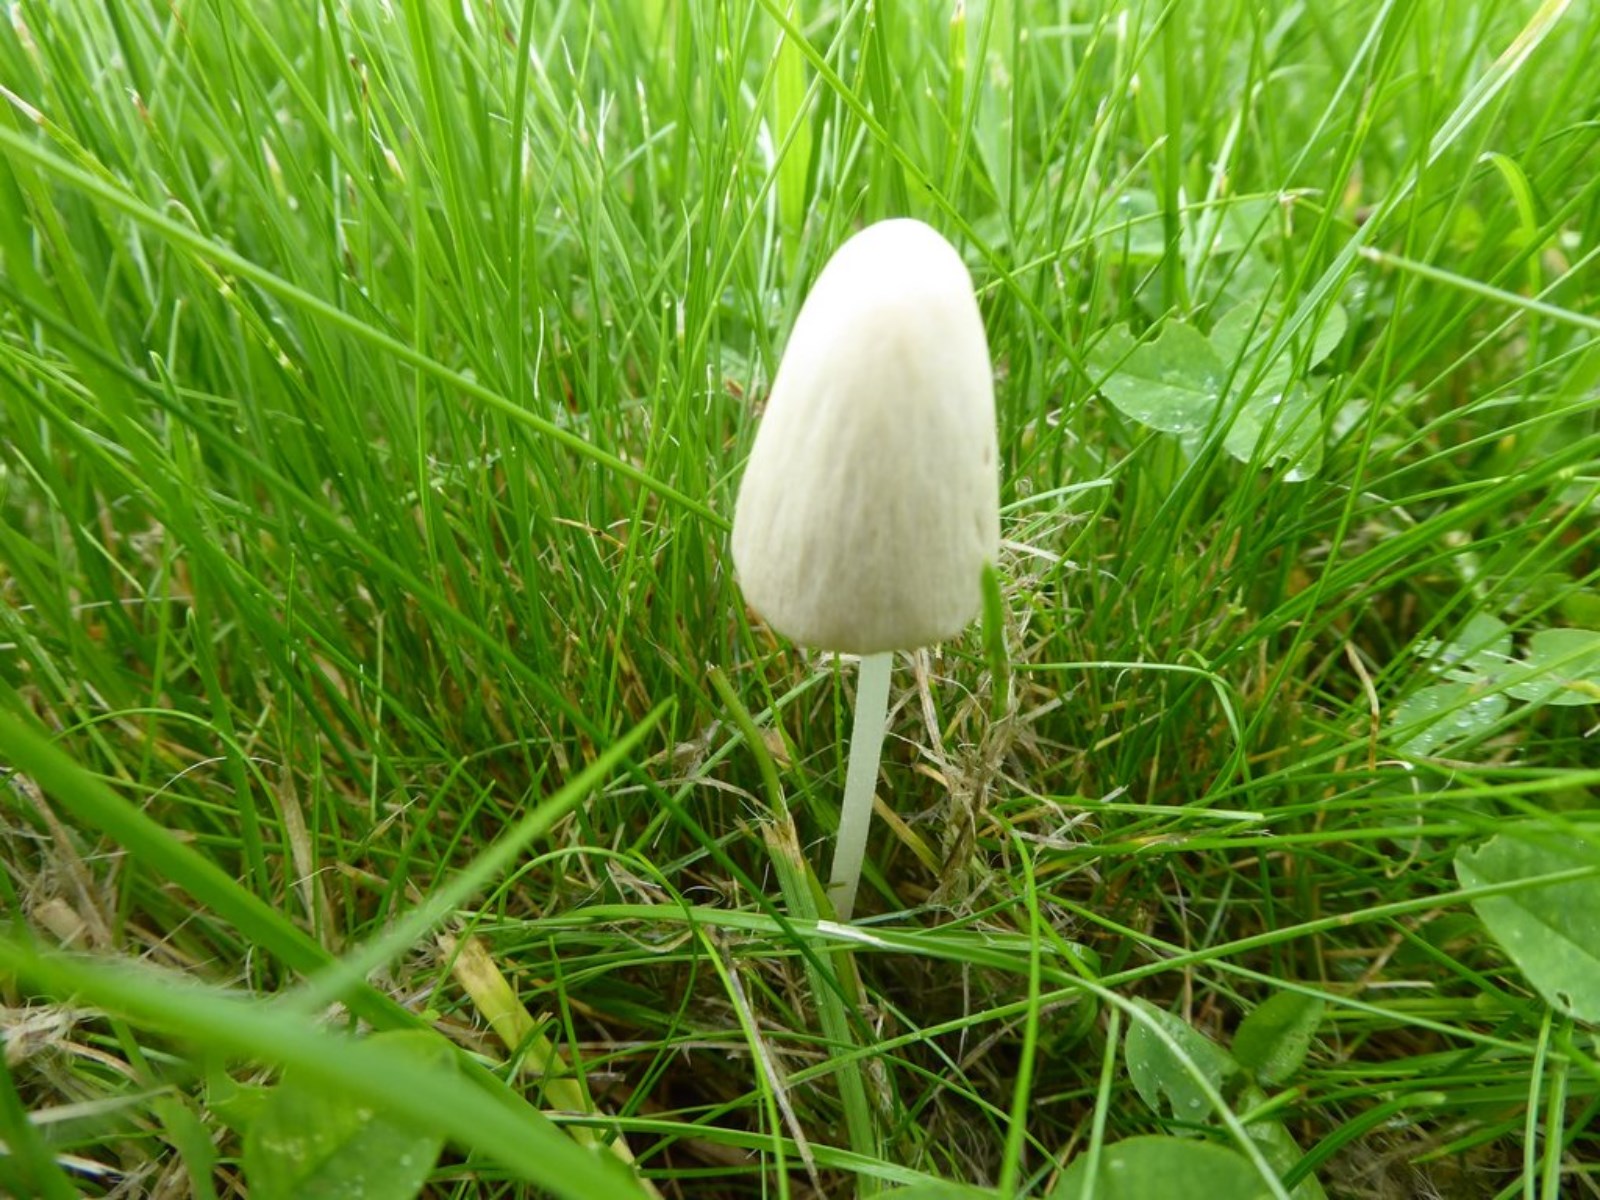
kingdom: Fungi
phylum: Basidiomycota
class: Agaricomycetes
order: Agaricales
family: Bolbitiaceae
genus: Conocybe
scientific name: Conocybe apala
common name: mælkehvid keglehat
